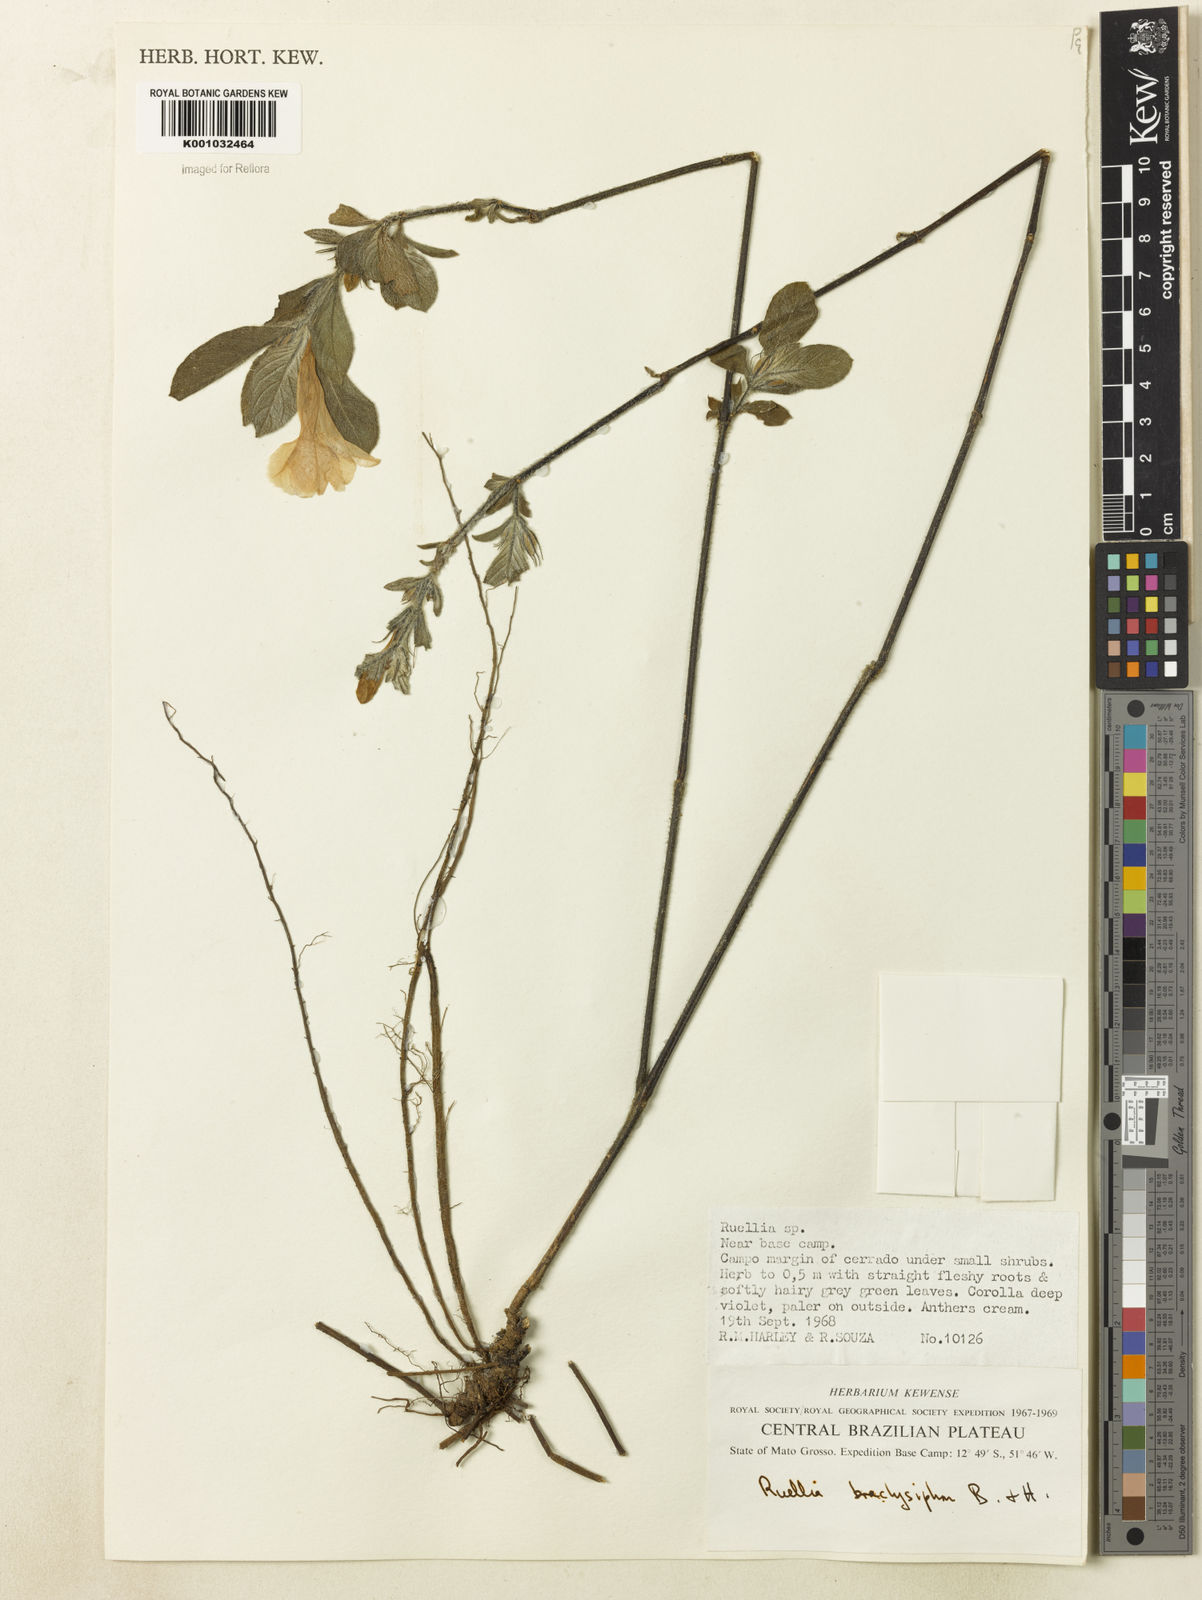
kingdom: Plantae
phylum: Tracheophyta
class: Magnoliopsida
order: Lamiales
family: Acanthaceae
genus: Ruellia
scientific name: Ruellia
